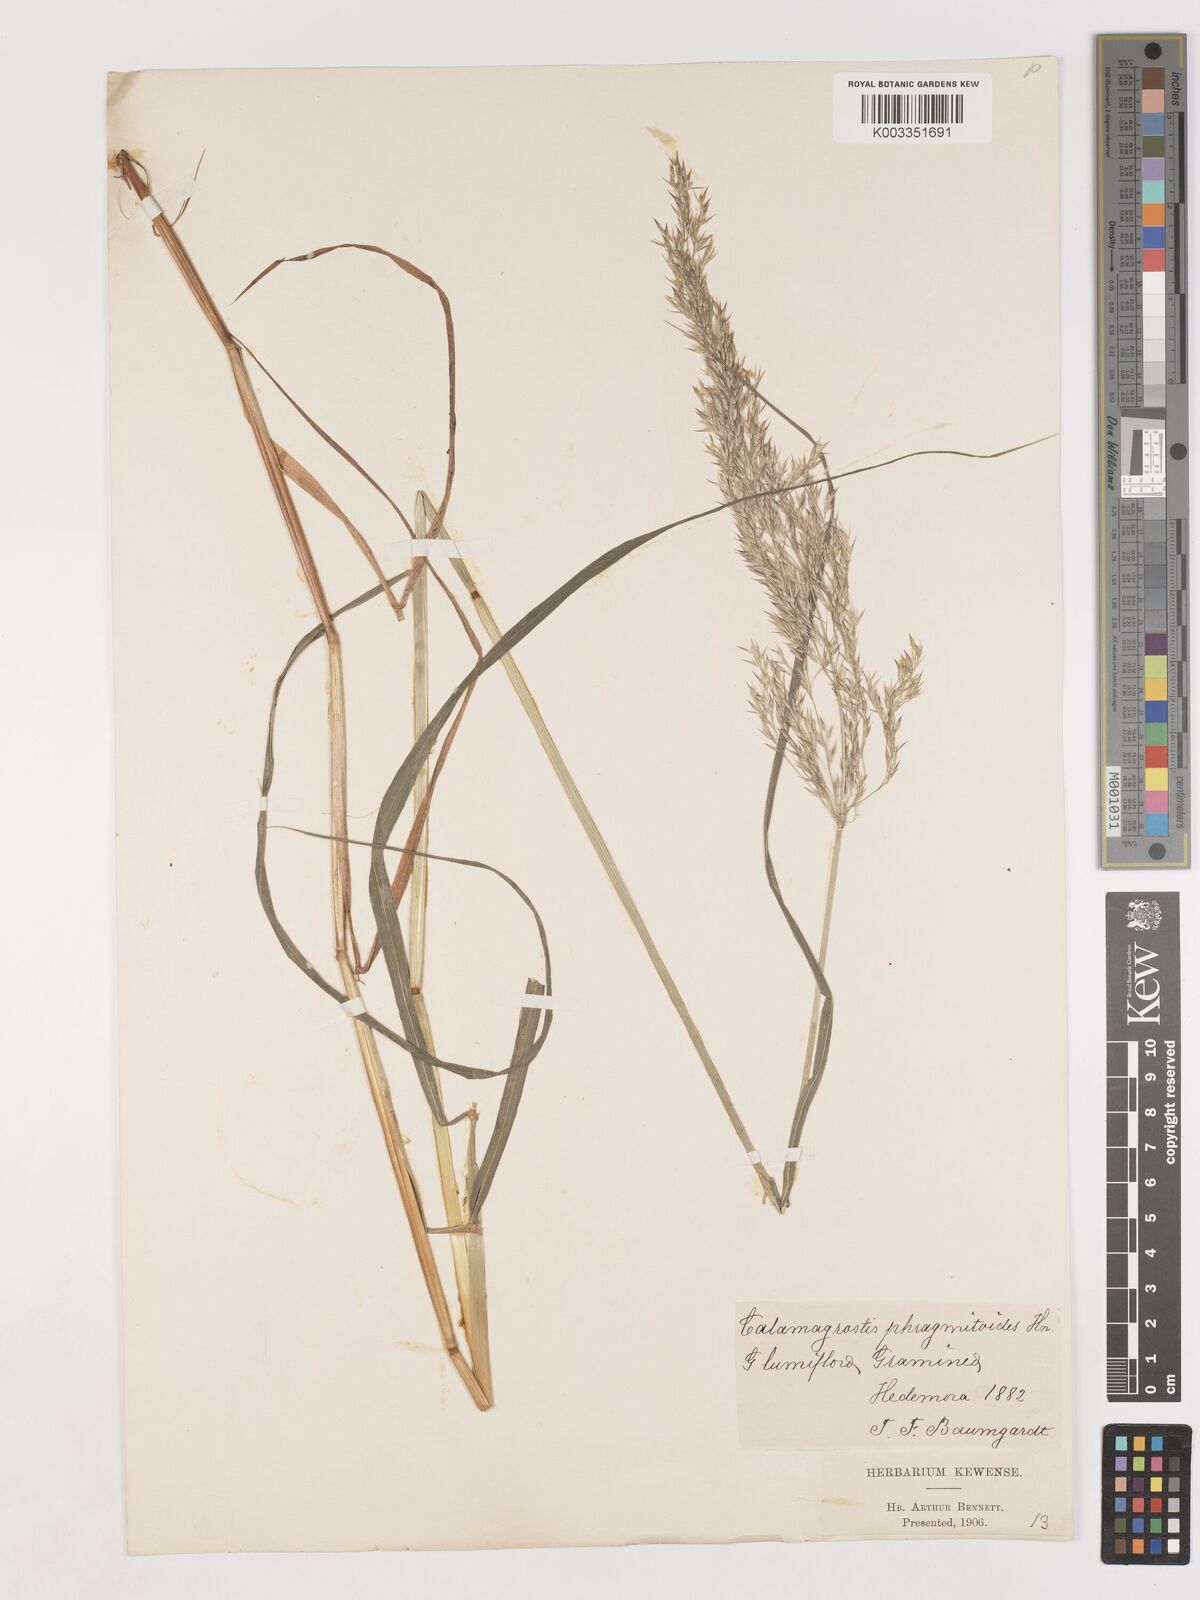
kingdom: Plantae
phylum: Tracheophyta
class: Liliopsida
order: Poales
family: Poaceae
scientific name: Poaceae
